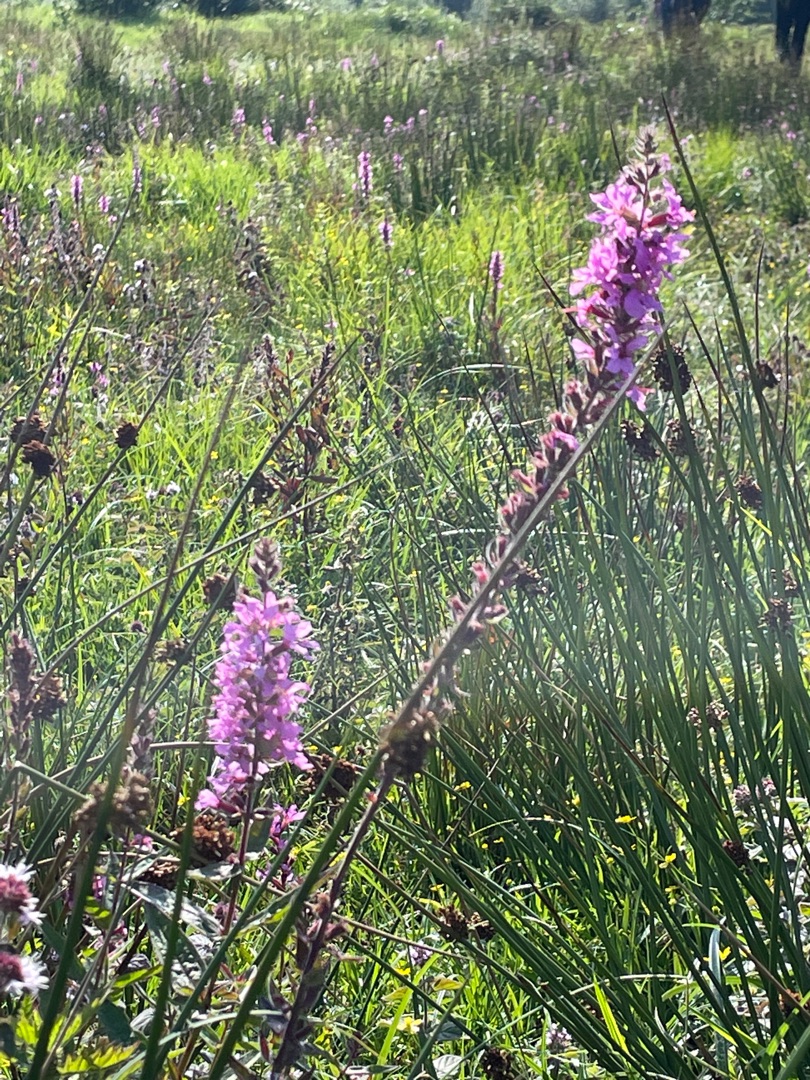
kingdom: Plantae
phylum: Tracheophyta
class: Magnoliopsida
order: Myrtales
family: Lythraceae
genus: Lythrum
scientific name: Lythrum salicaria
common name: Kattehale
